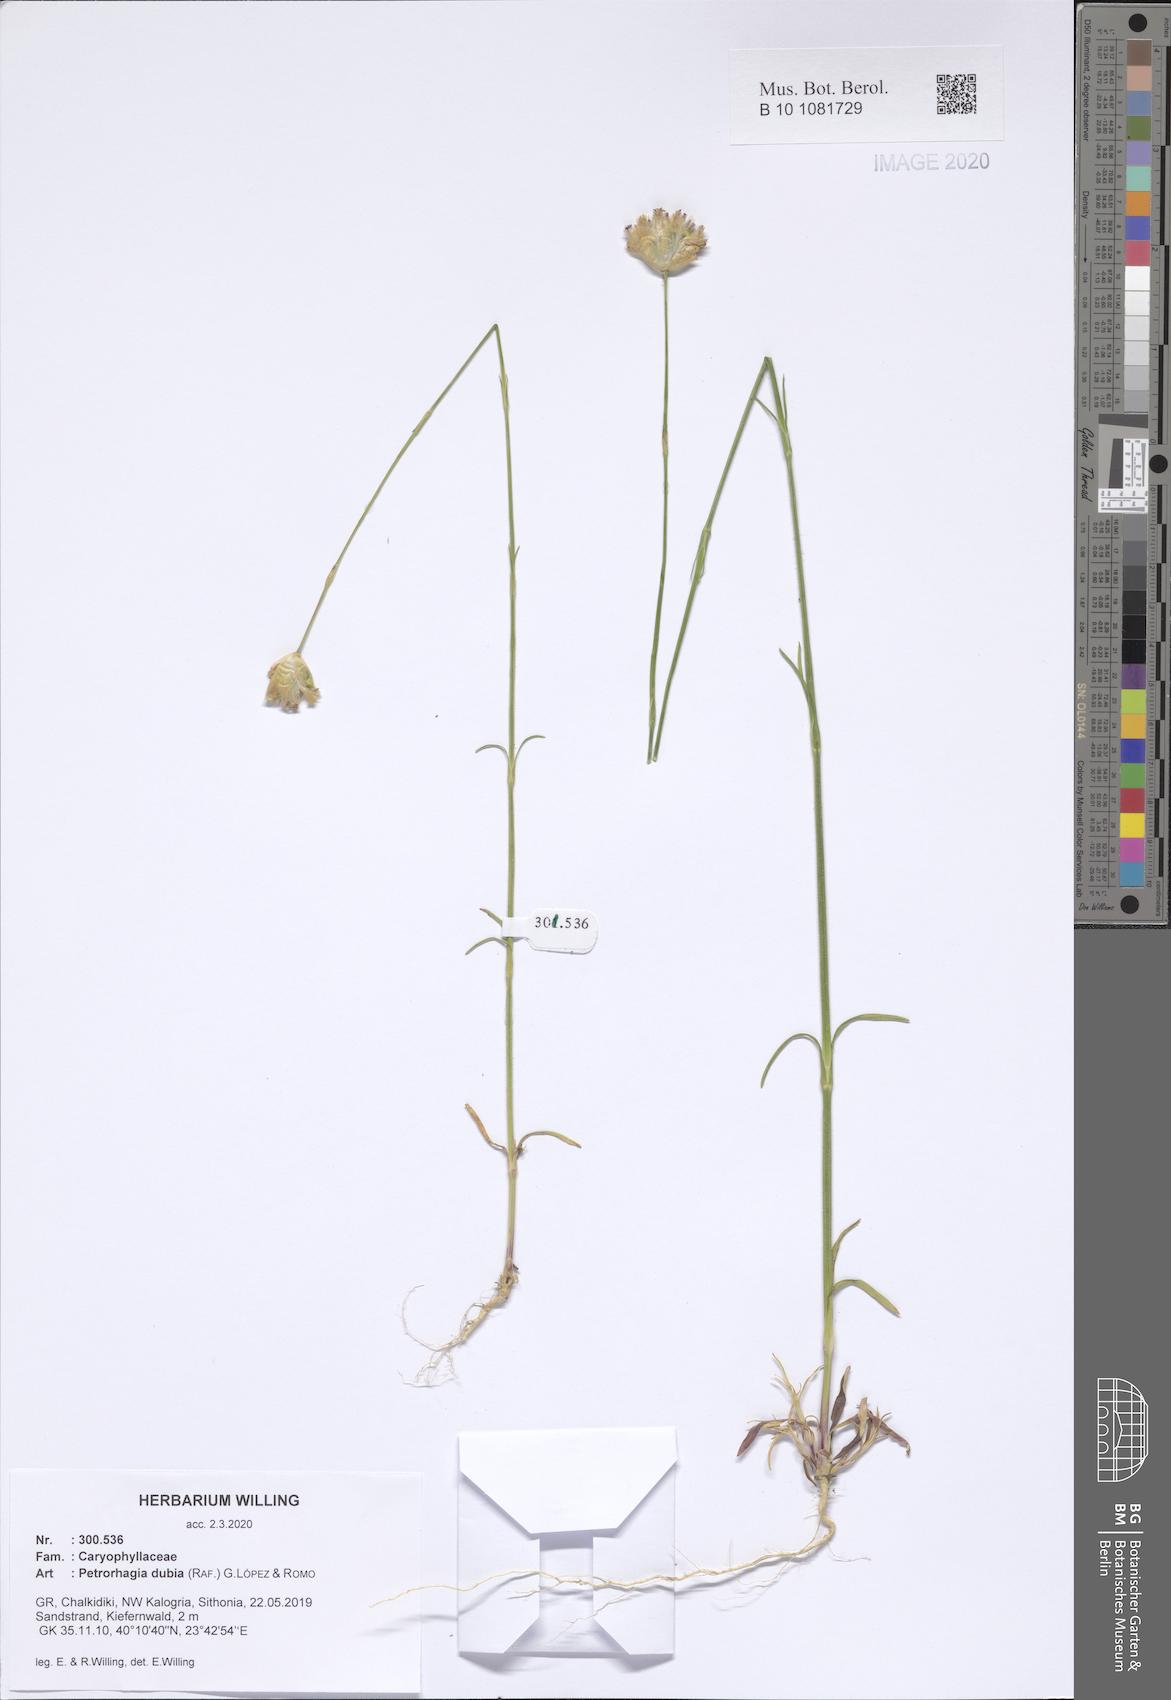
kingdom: Plantae
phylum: Tracheophyta
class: Magnoliopsida
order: Caryophyllales
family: Caryophyllaceae
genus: Petrorhagia
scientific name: Petrorhagia dubia
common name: Hairypink
